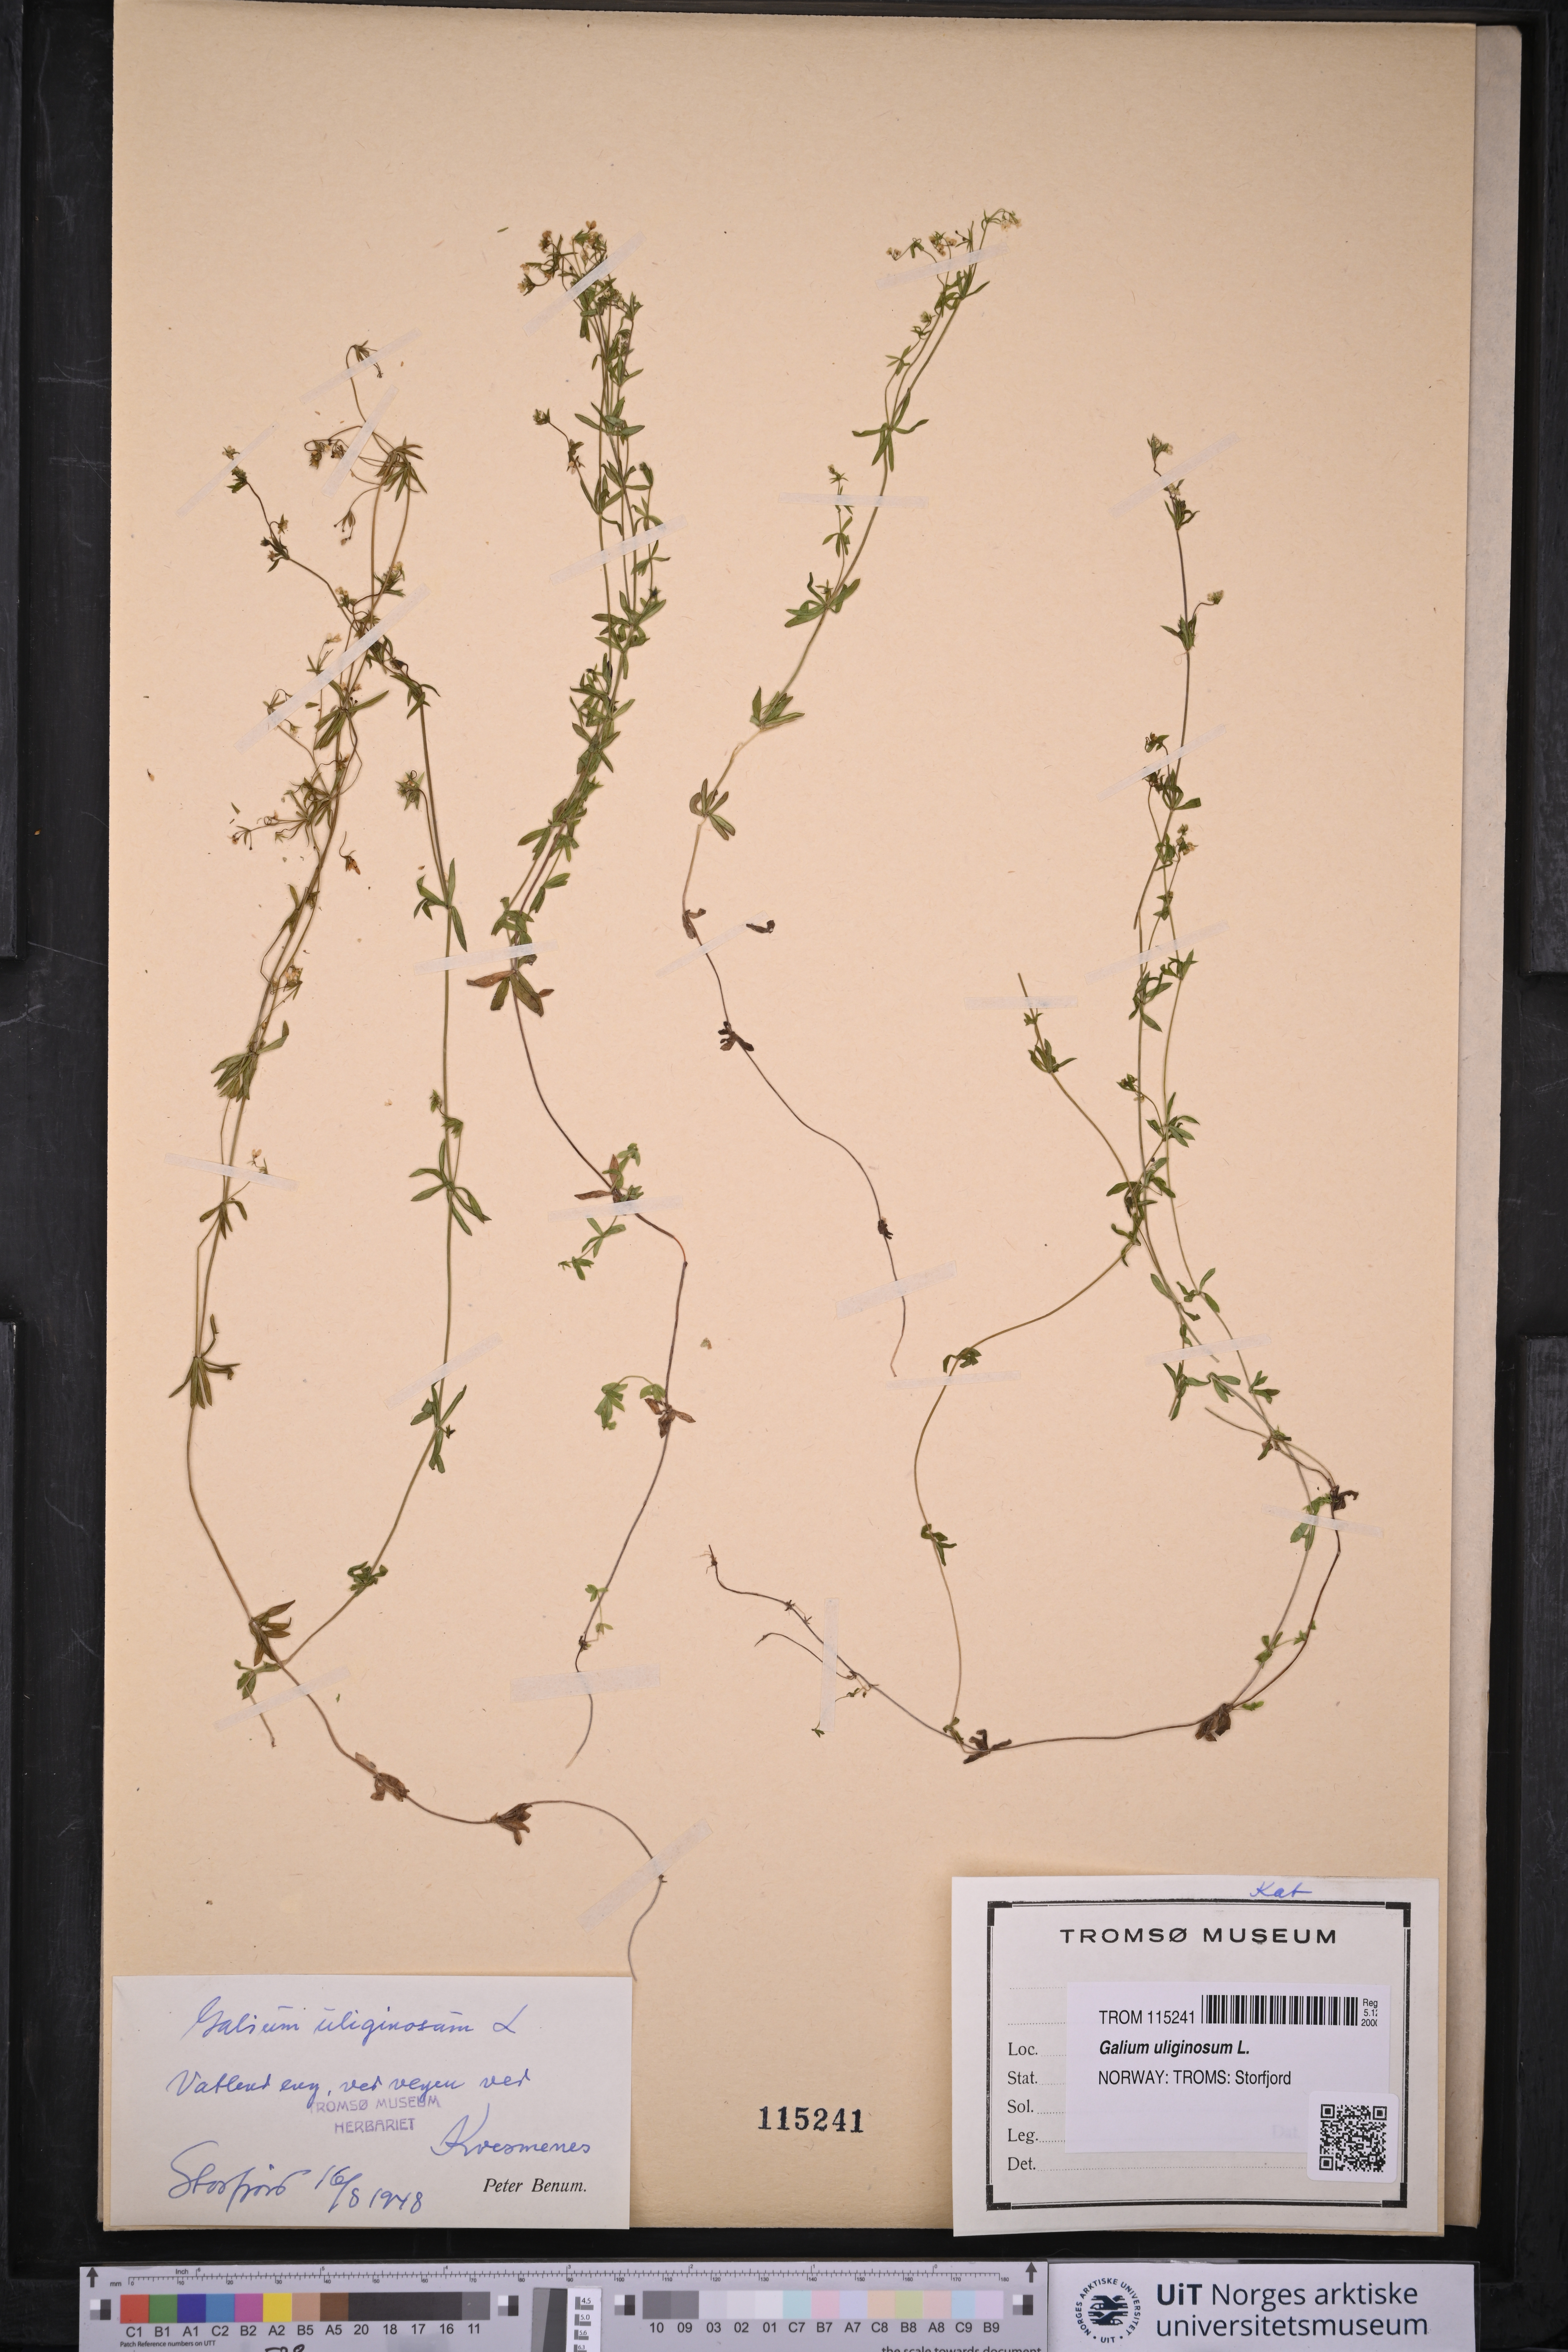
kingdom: Plantae
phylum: Tracheophyta
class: Magnoliopsida
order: Gentianales
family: Rubiaceae
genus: Galium
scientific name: Galium uliginosum
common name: Fen bedstraw
